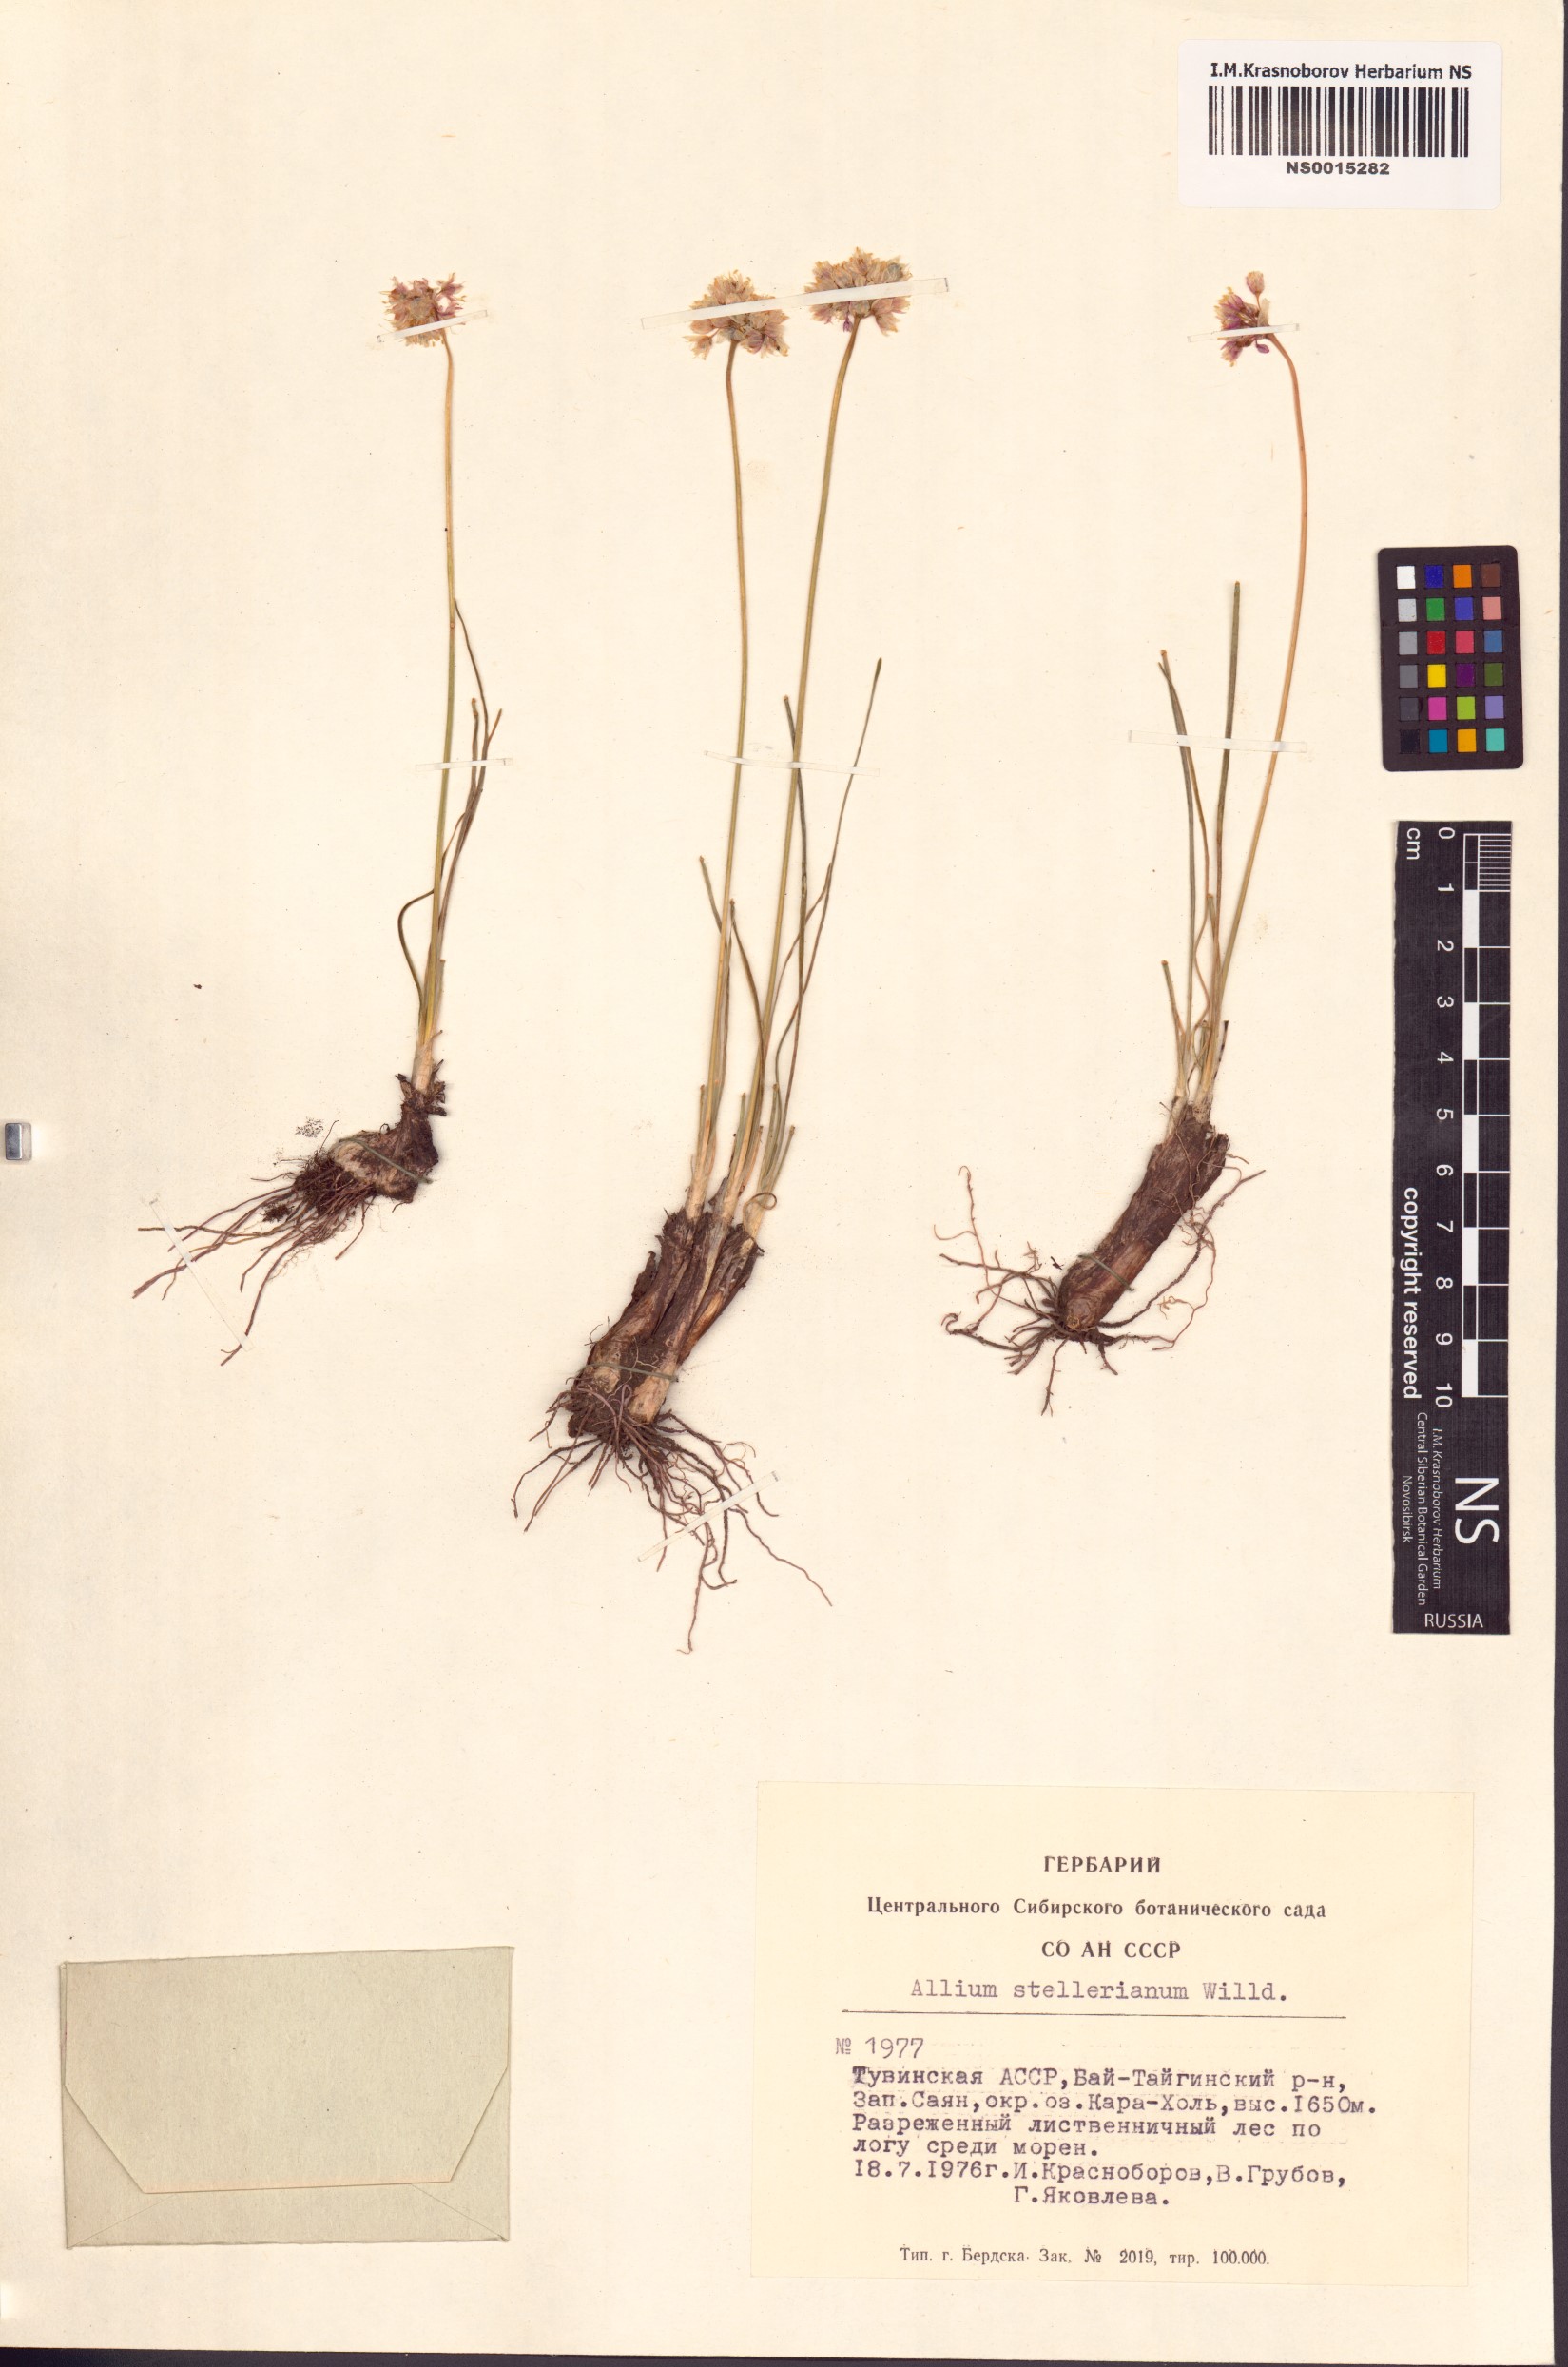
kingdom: Plantae
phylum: Tracheophyta
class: Liliopsida
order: Asparagales
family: Amaryllidaceae
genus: Allium
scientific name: Allium stellerianum
